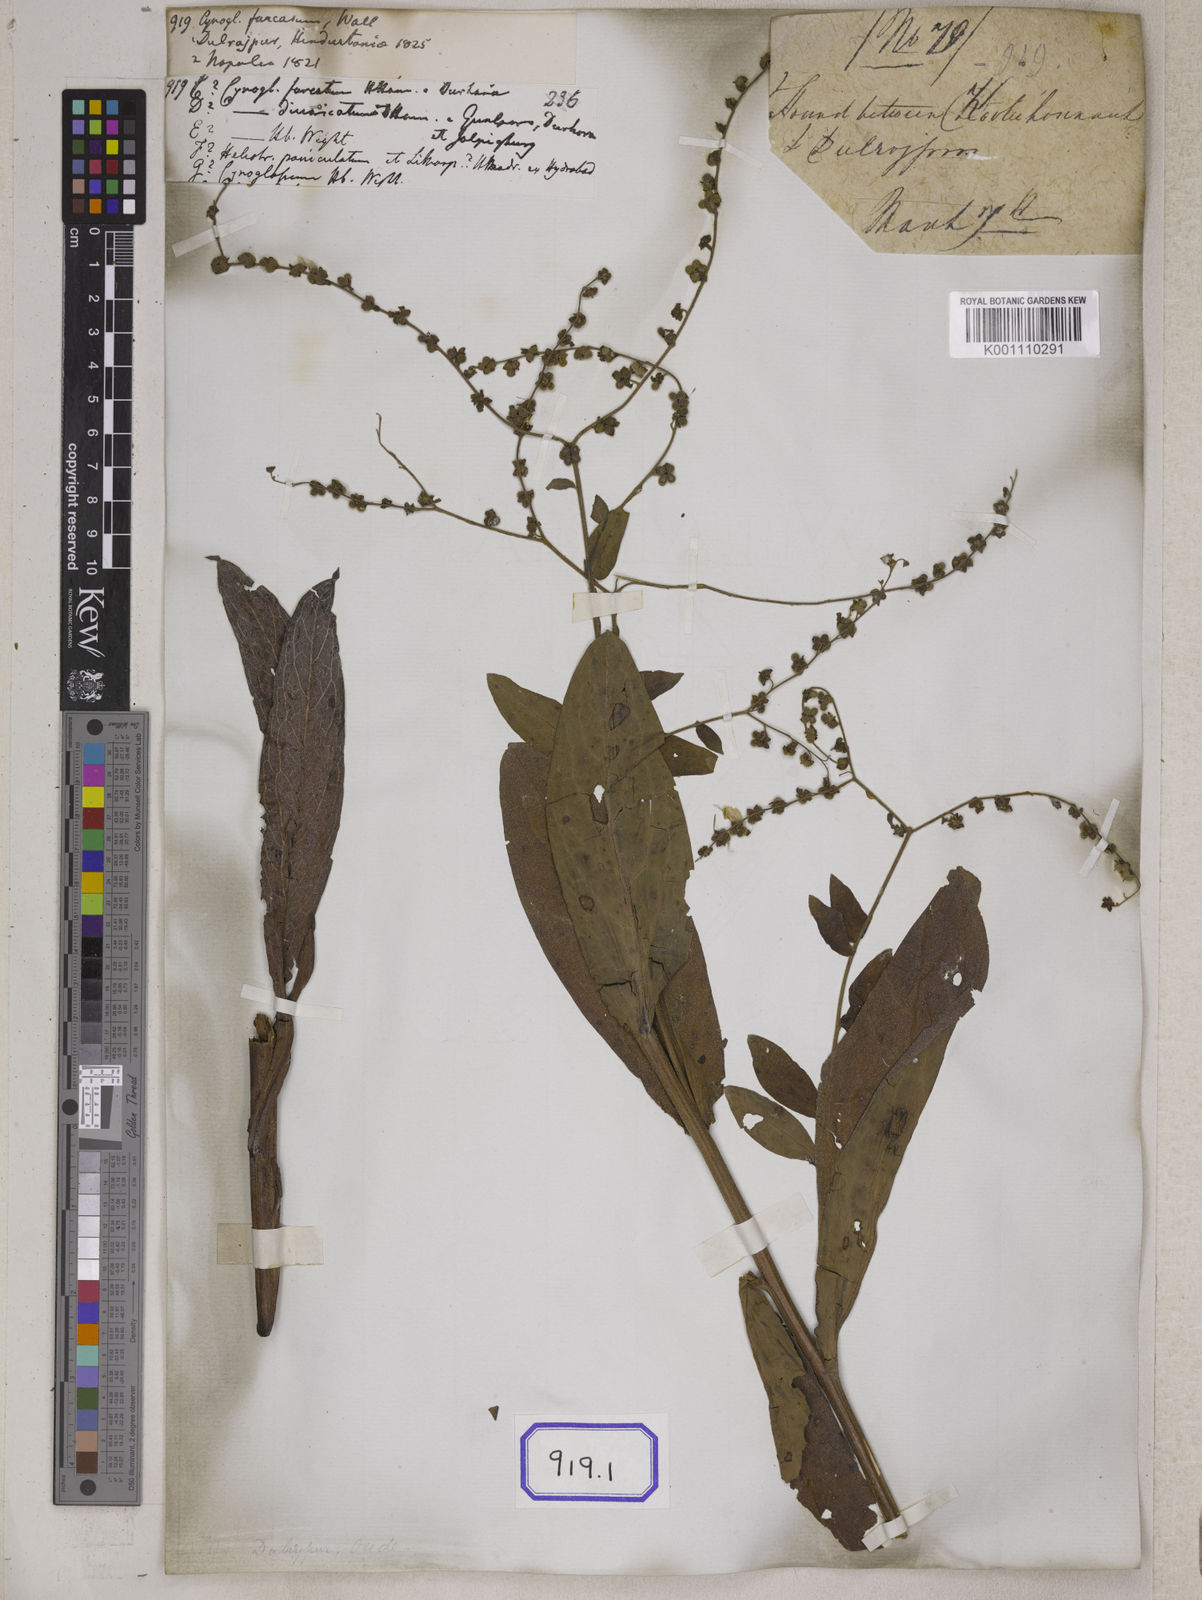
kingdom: Plantae
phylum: Tracheophyta
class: Magnoliopsida
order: Boraginales
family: Boraginaceae
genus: Rochelia
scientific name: Rochelia zeylanica
